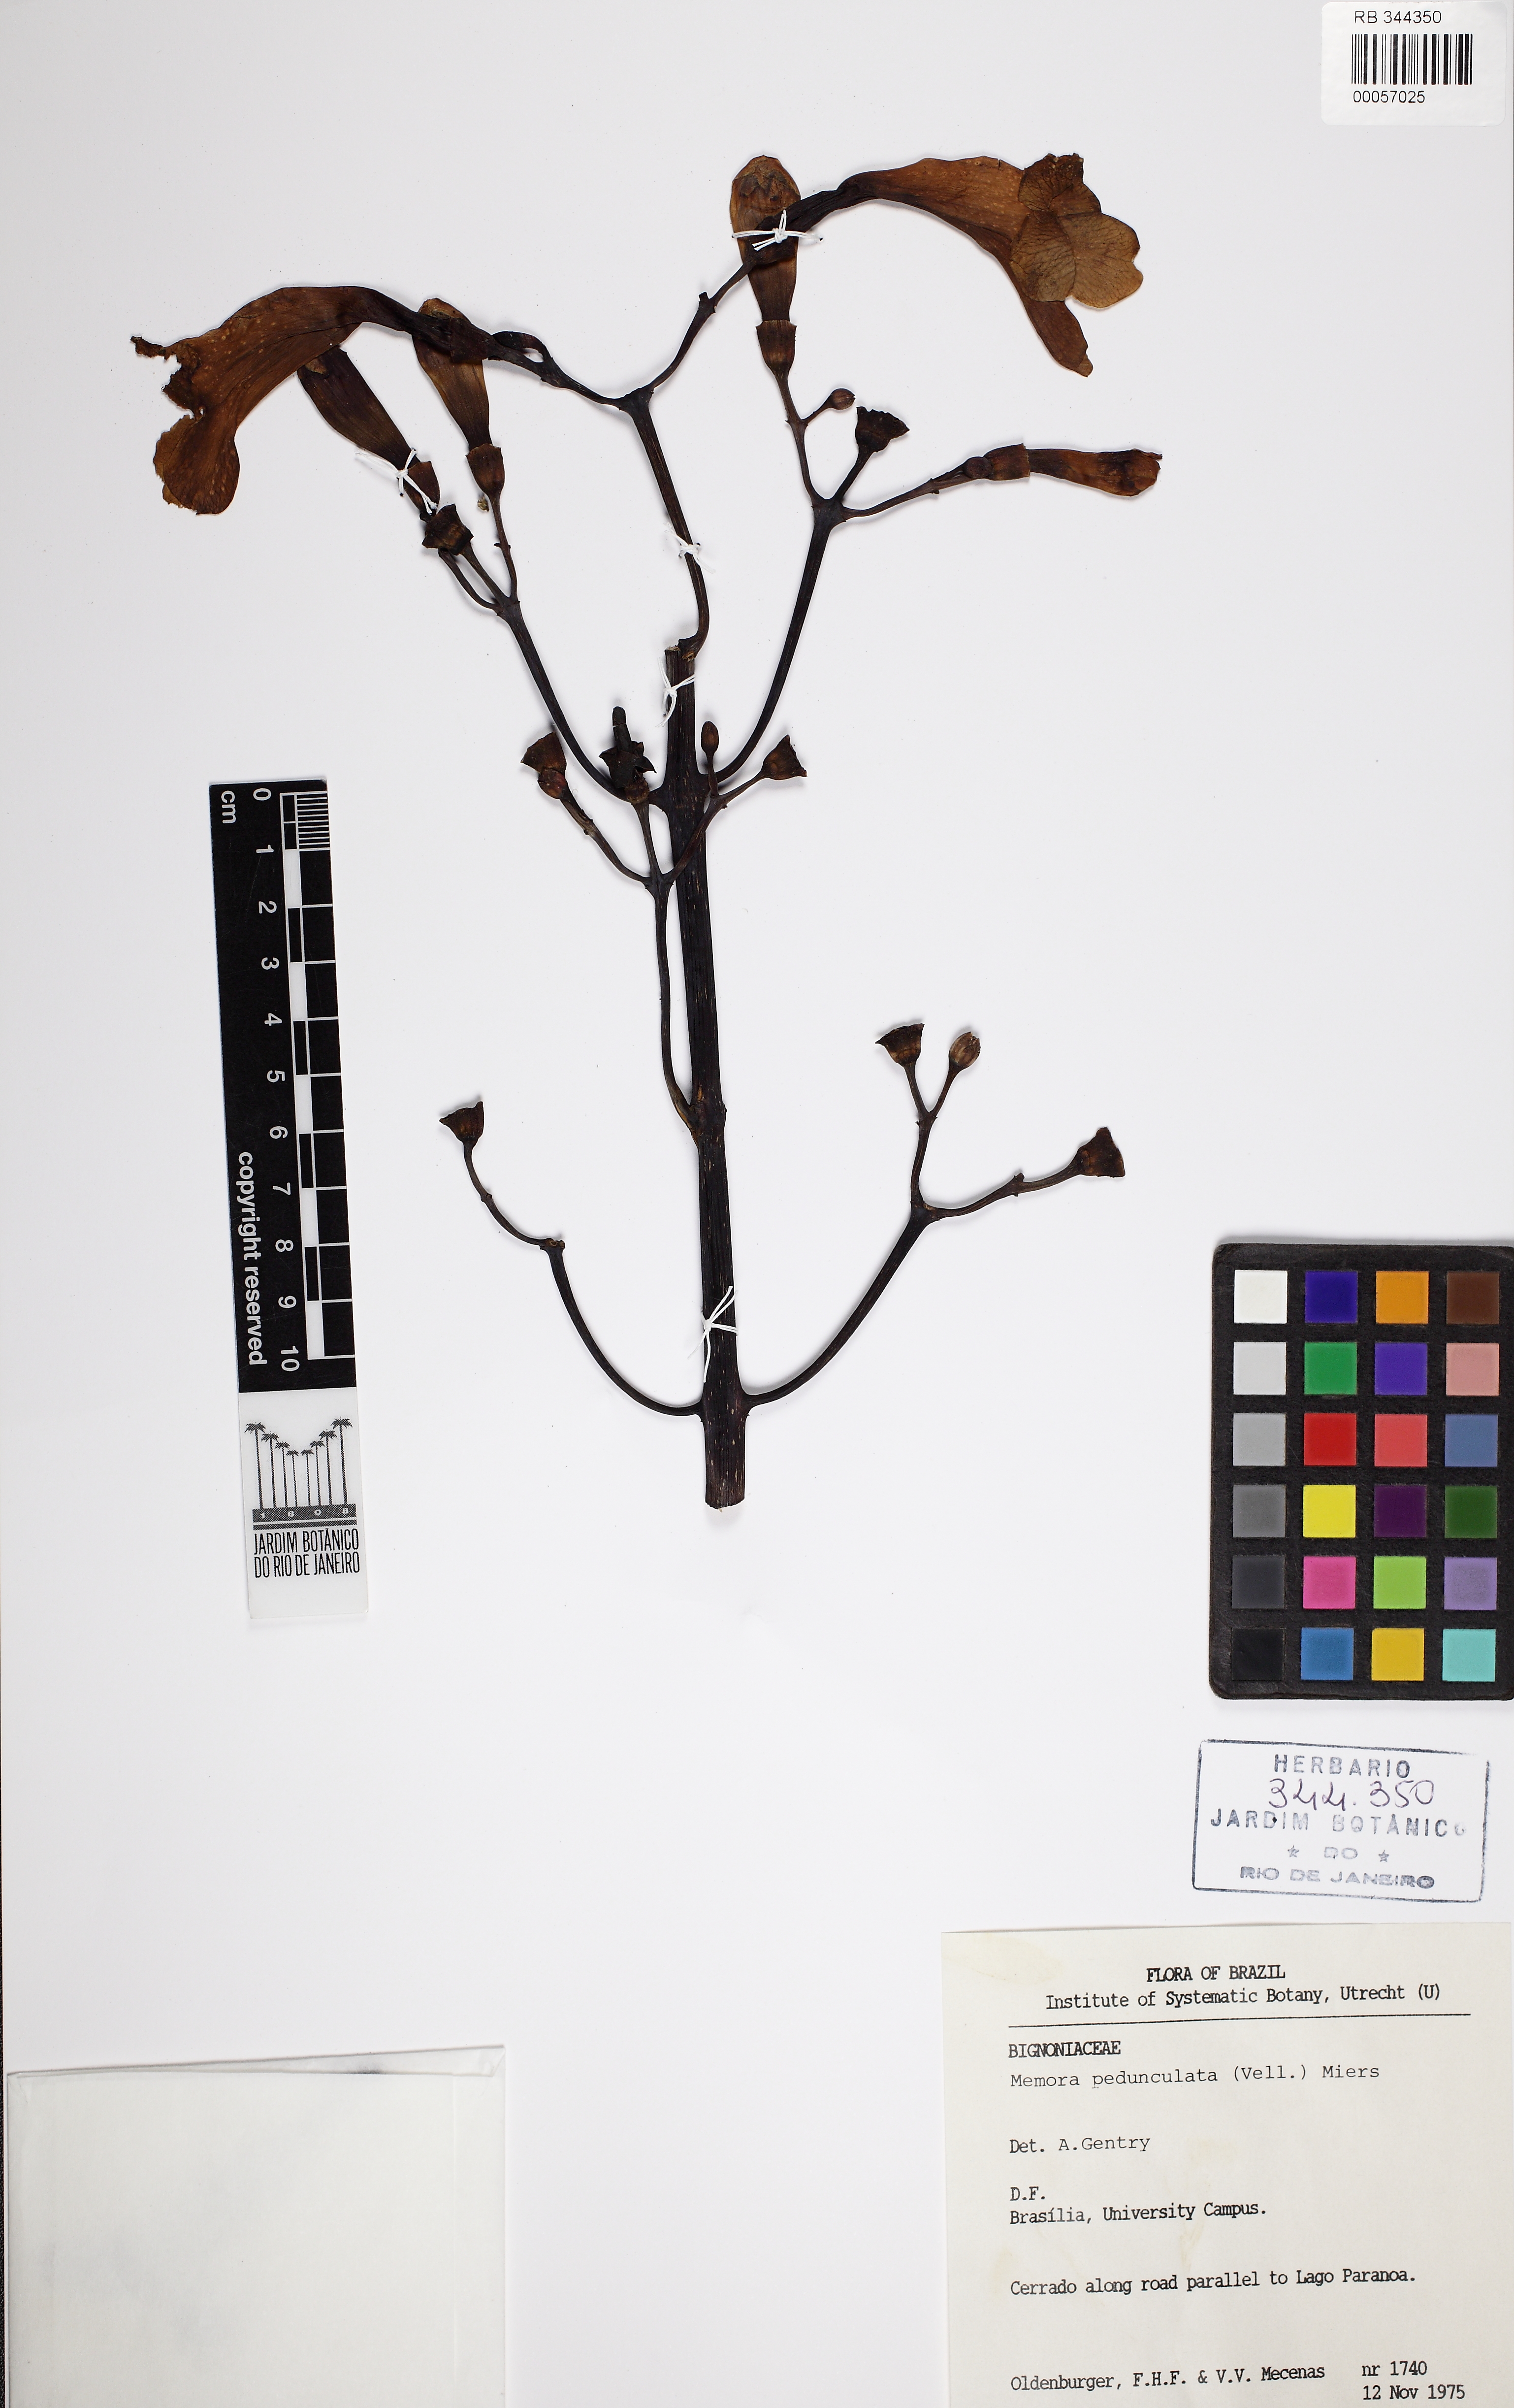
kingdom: Plantae
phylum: Tracheophyta
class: Magnoliopsida
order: Lamiales
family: Bignoniaceae
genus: Adenocalymma
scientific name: Adenocalymma pedunculatum
